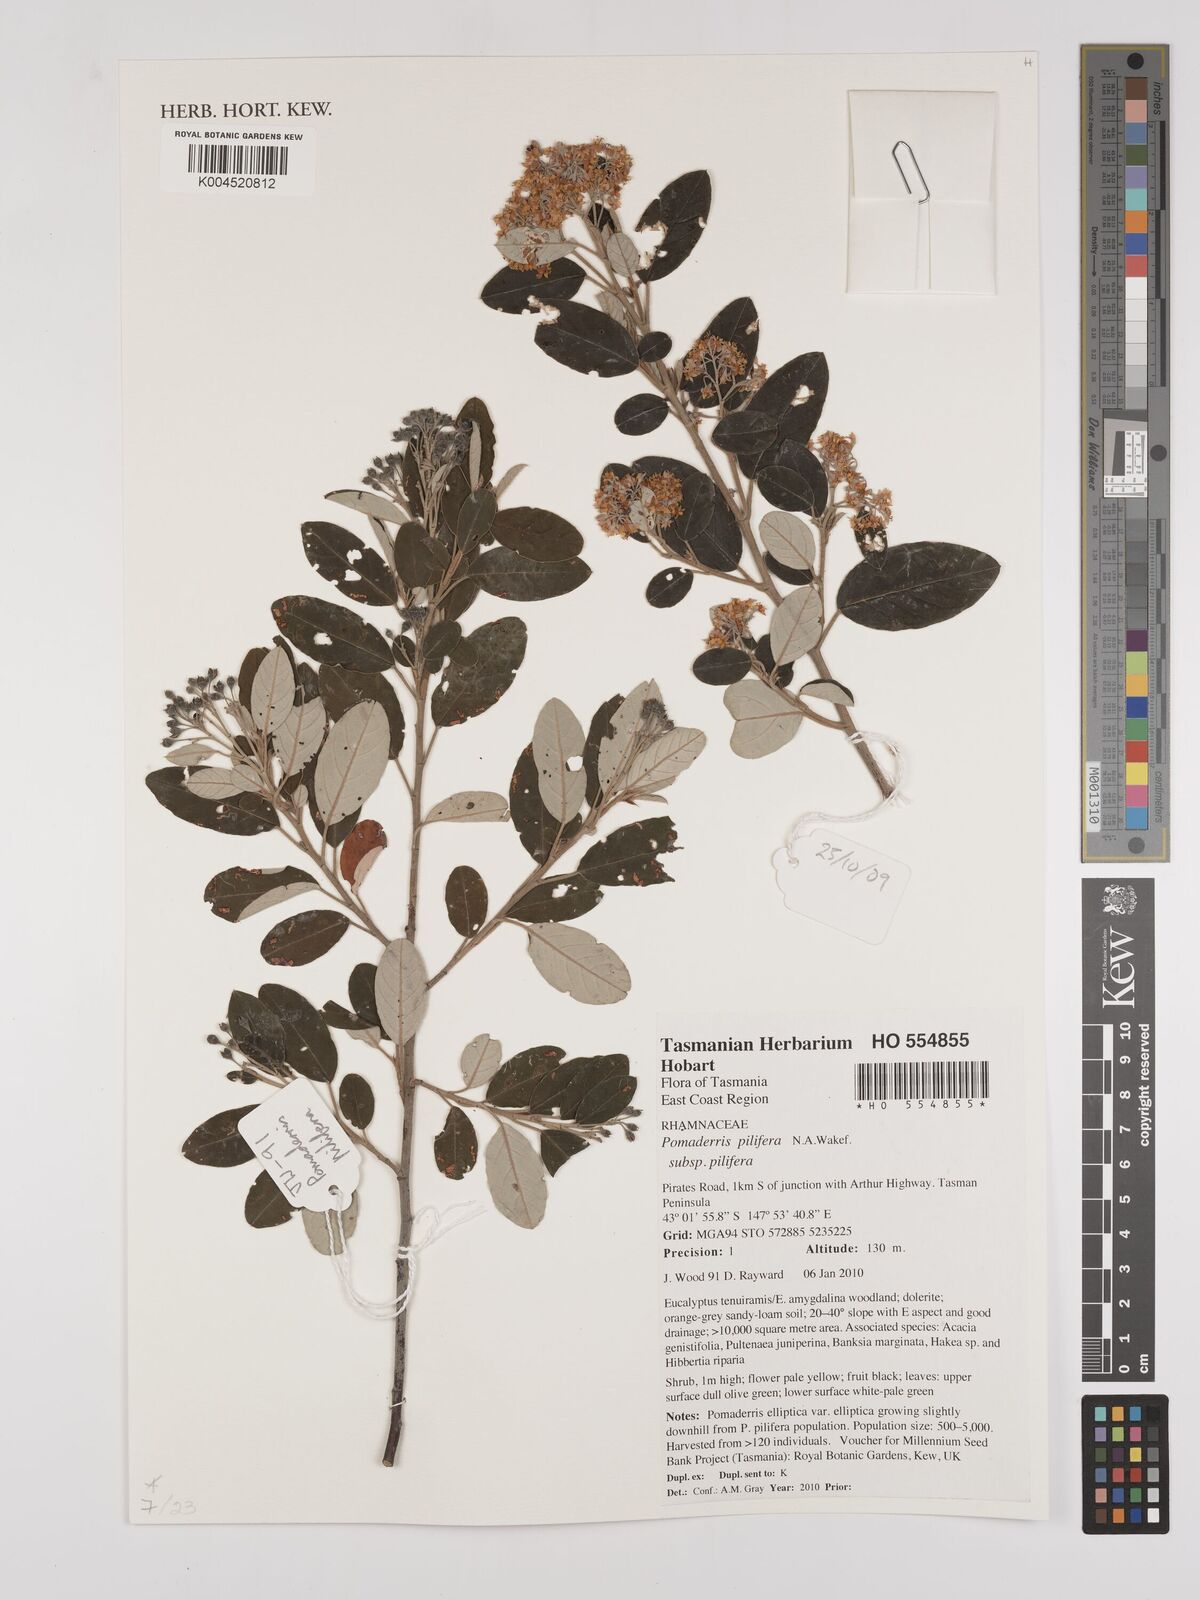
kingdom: Plantae
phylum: Tracheophyta
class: Magnoliopsida
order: Rosales
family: Rhamnaceae
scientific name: Rhamnaceae
